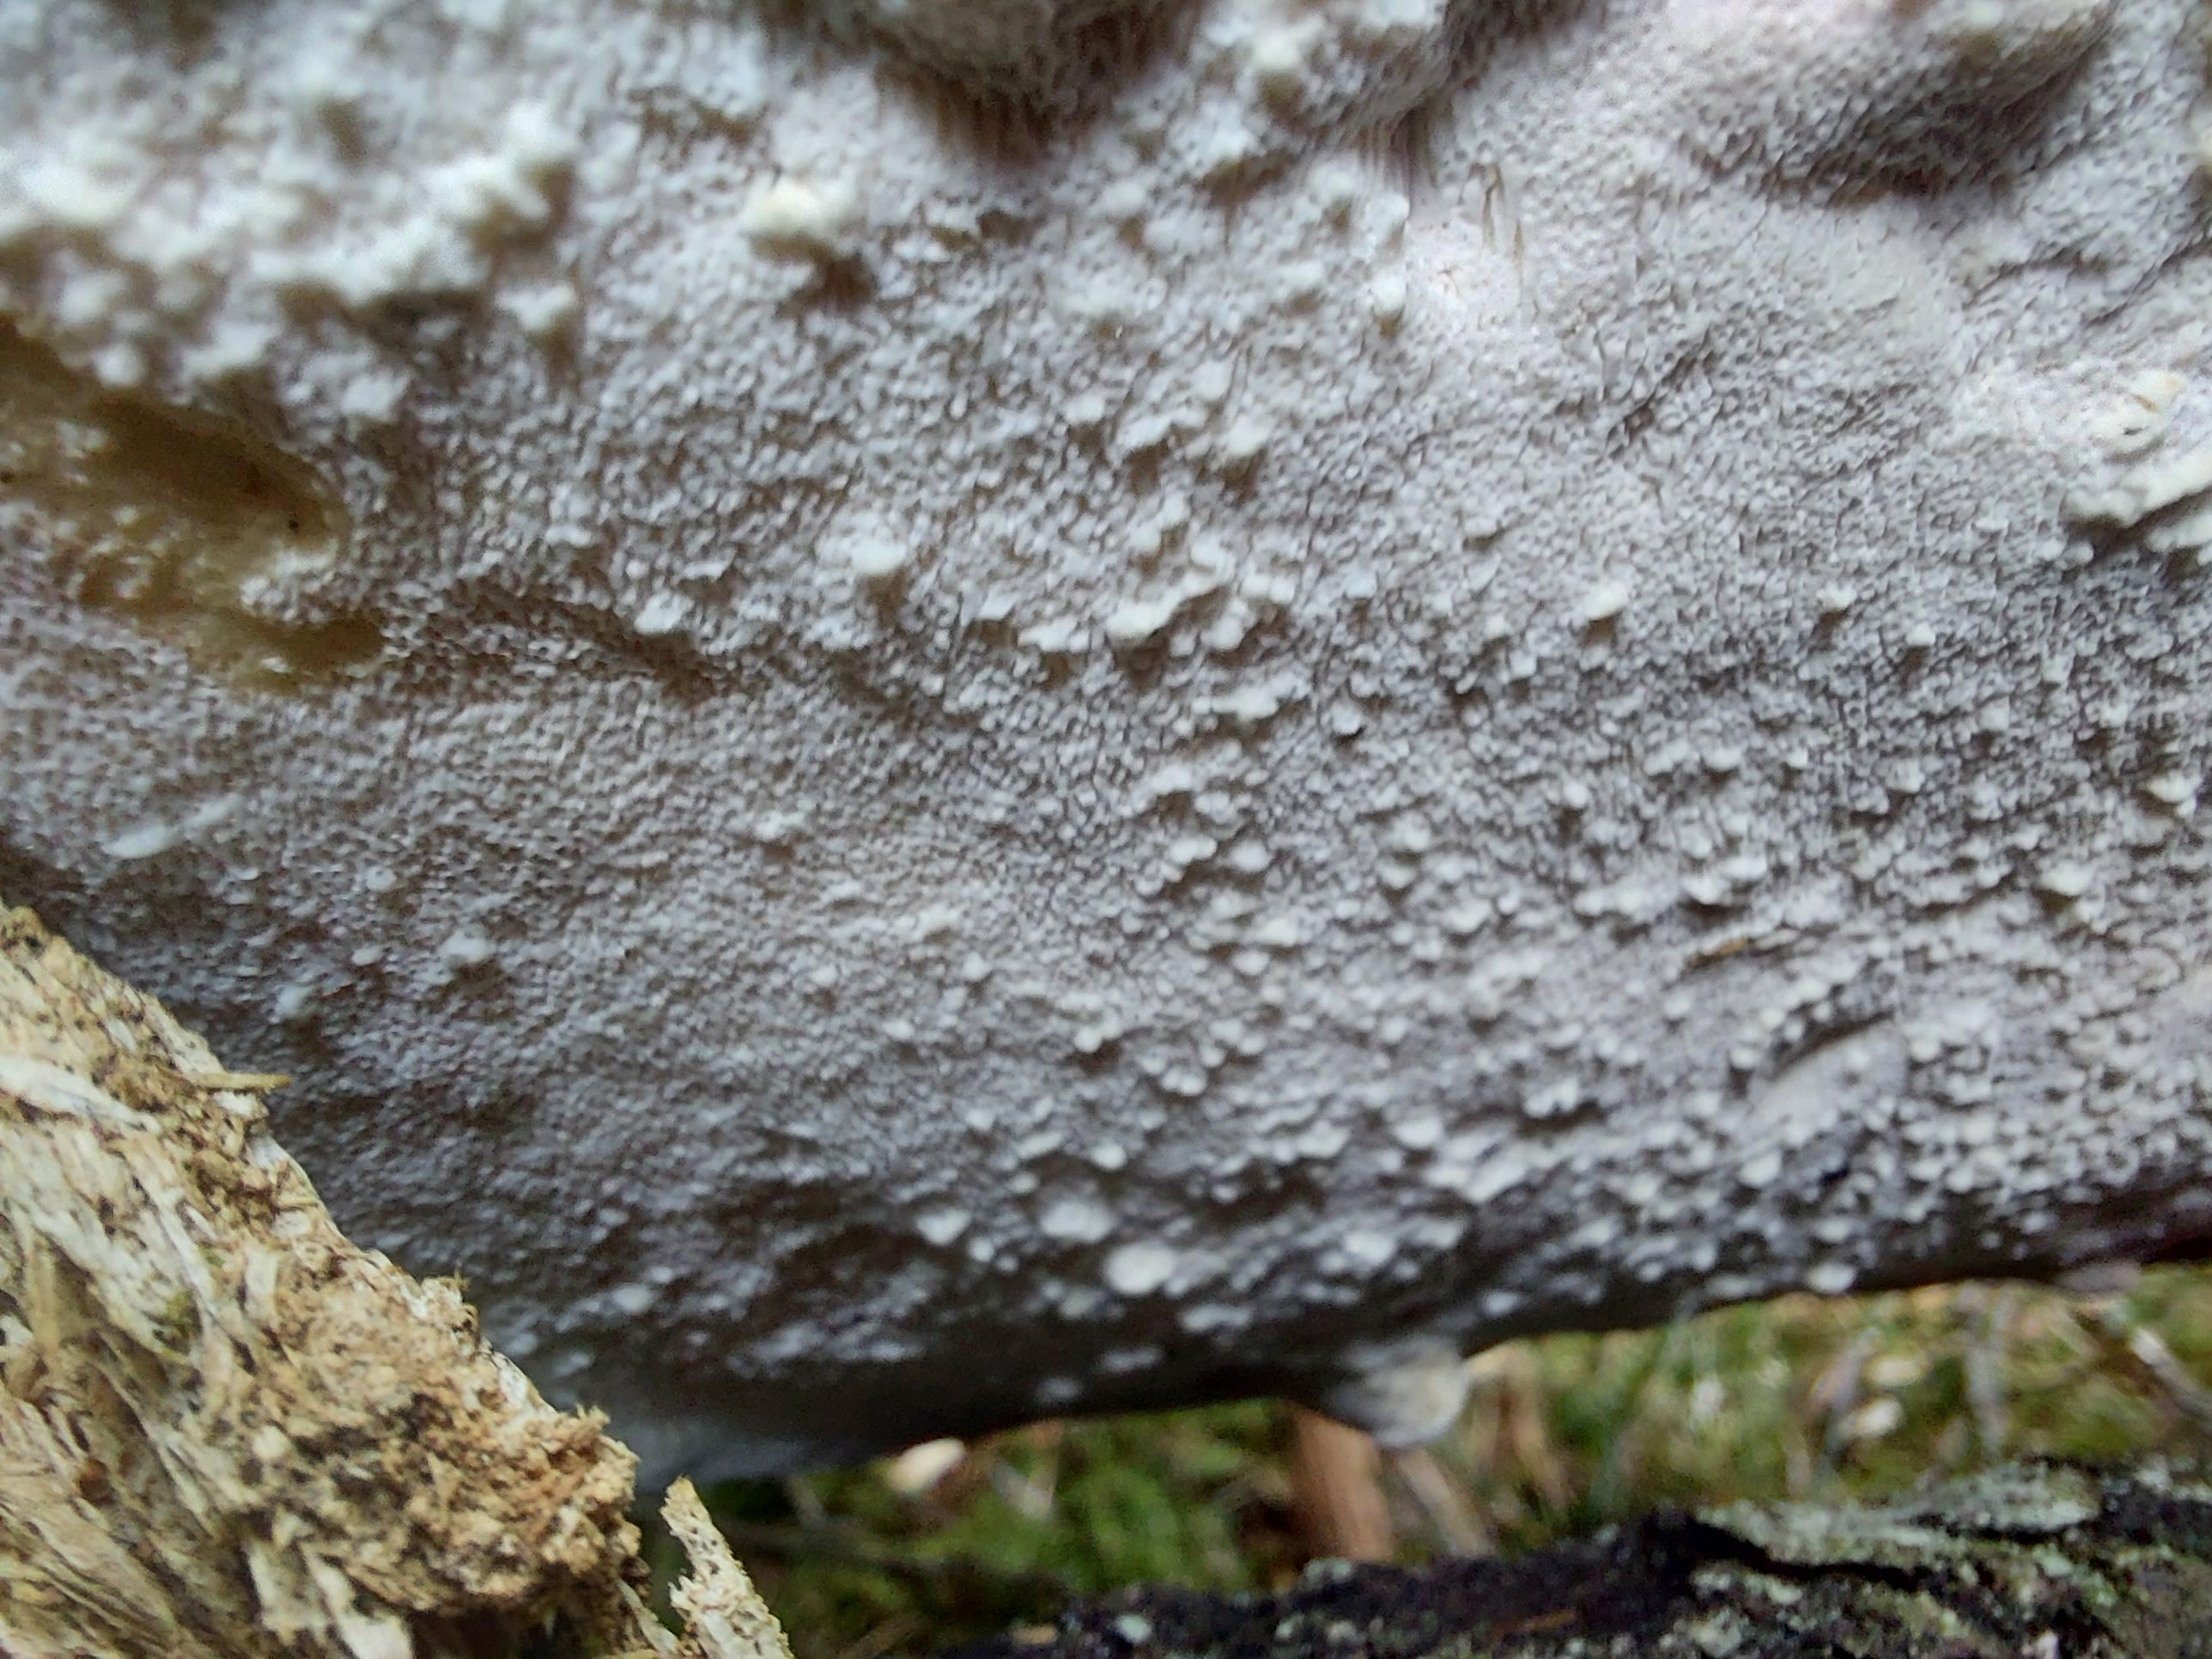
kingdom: Fungi
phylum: Basidiomycota
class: Agaricomycetes
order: Polyporales
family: Fomitopsidaceae
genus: Neoantrodia
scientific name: Neoantrodia serialis
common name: række-sejporesvamp
